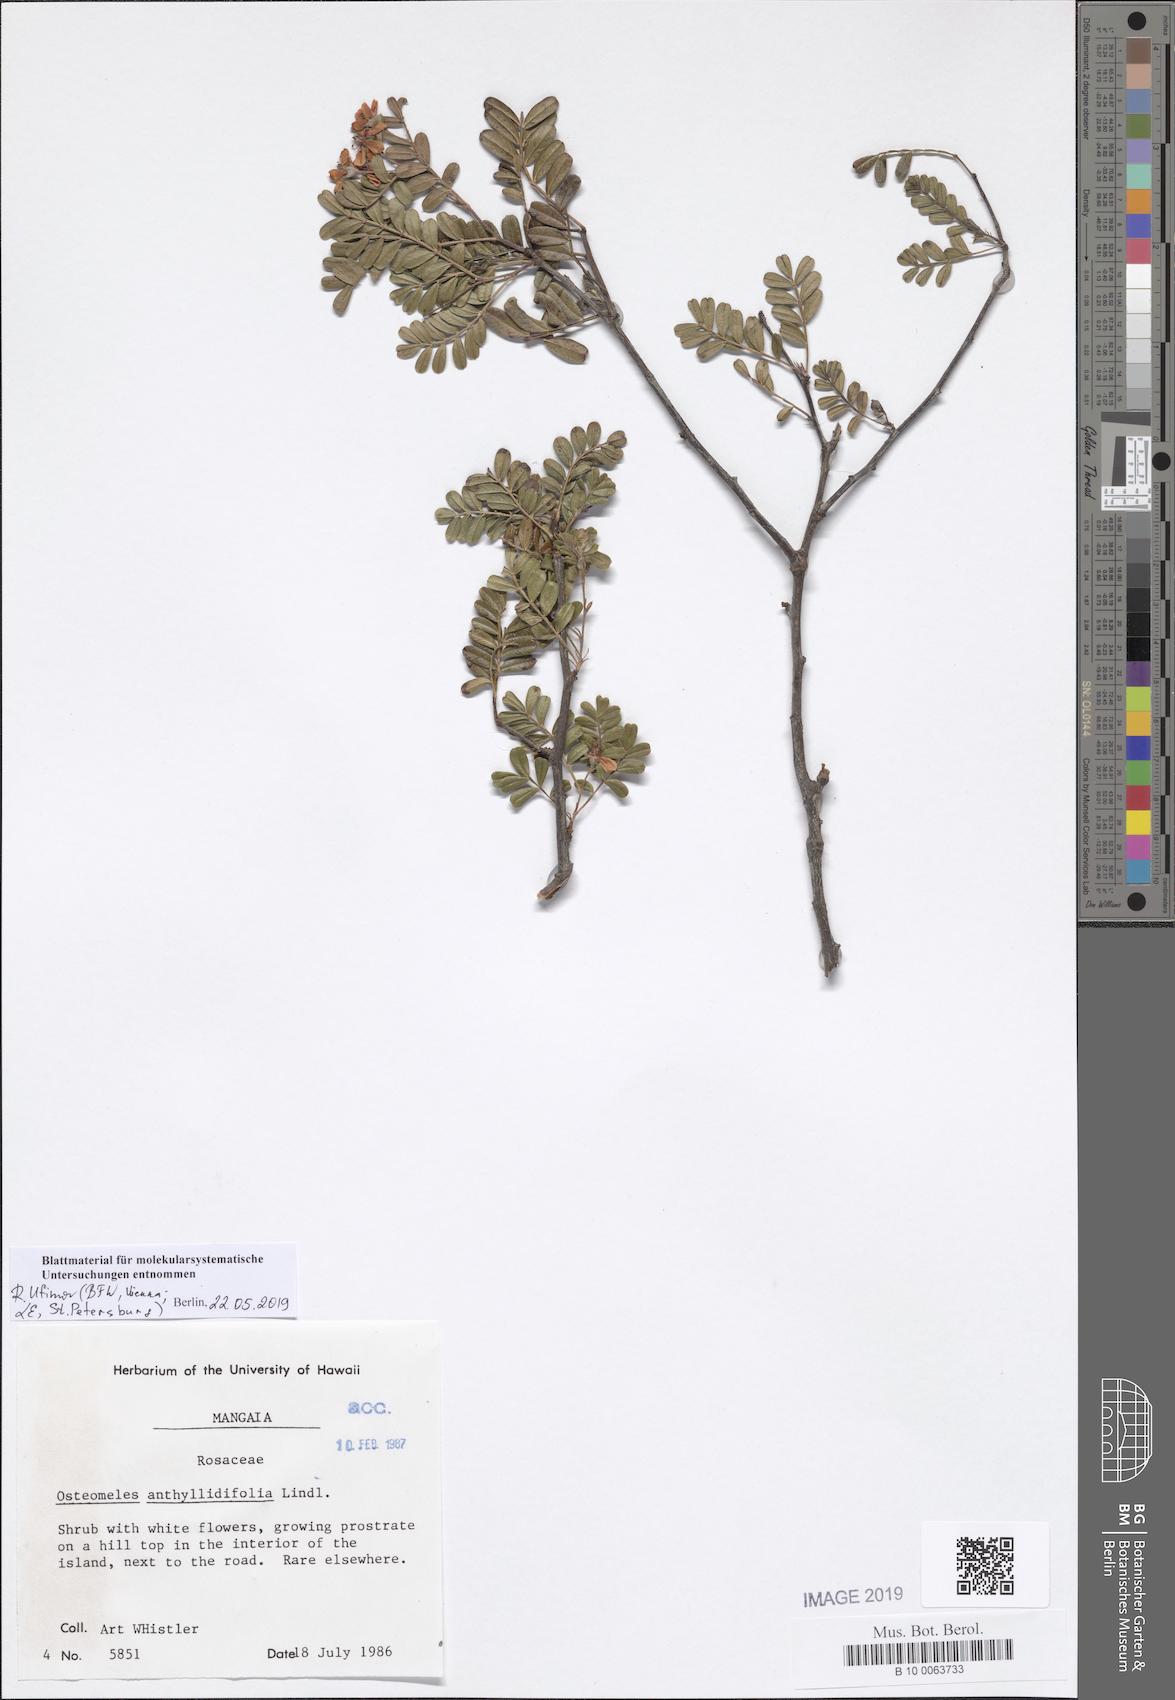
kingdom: Plantae
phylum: Tracheophyta
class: Magnoliopsida
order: Rosales
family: Rosaceae
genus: Osteomeles
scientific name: Osteomeles anthyllidifolia
